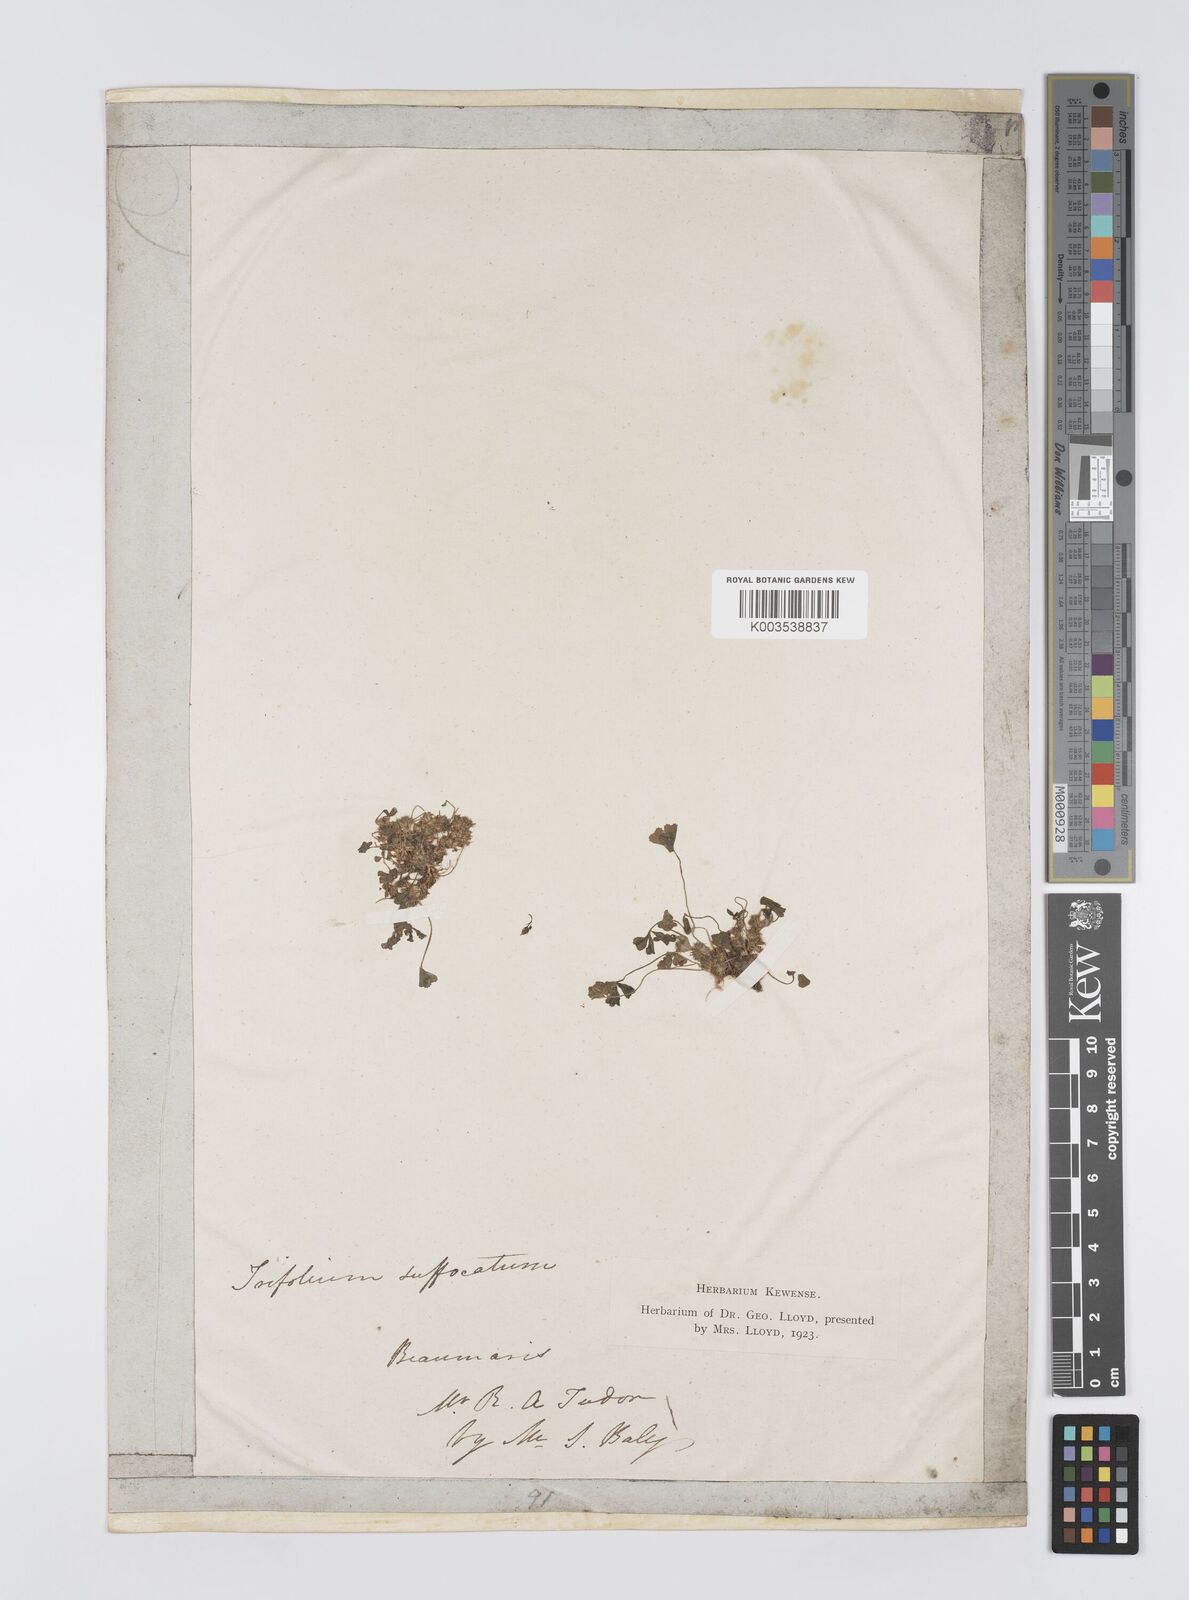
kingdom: Plantae
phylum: Tracheophyta
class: Magnoliopsida
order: Fabales
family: Fabaceae
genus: Trifolium
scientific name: Trifolium suffocatum
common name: Suffocated clover
